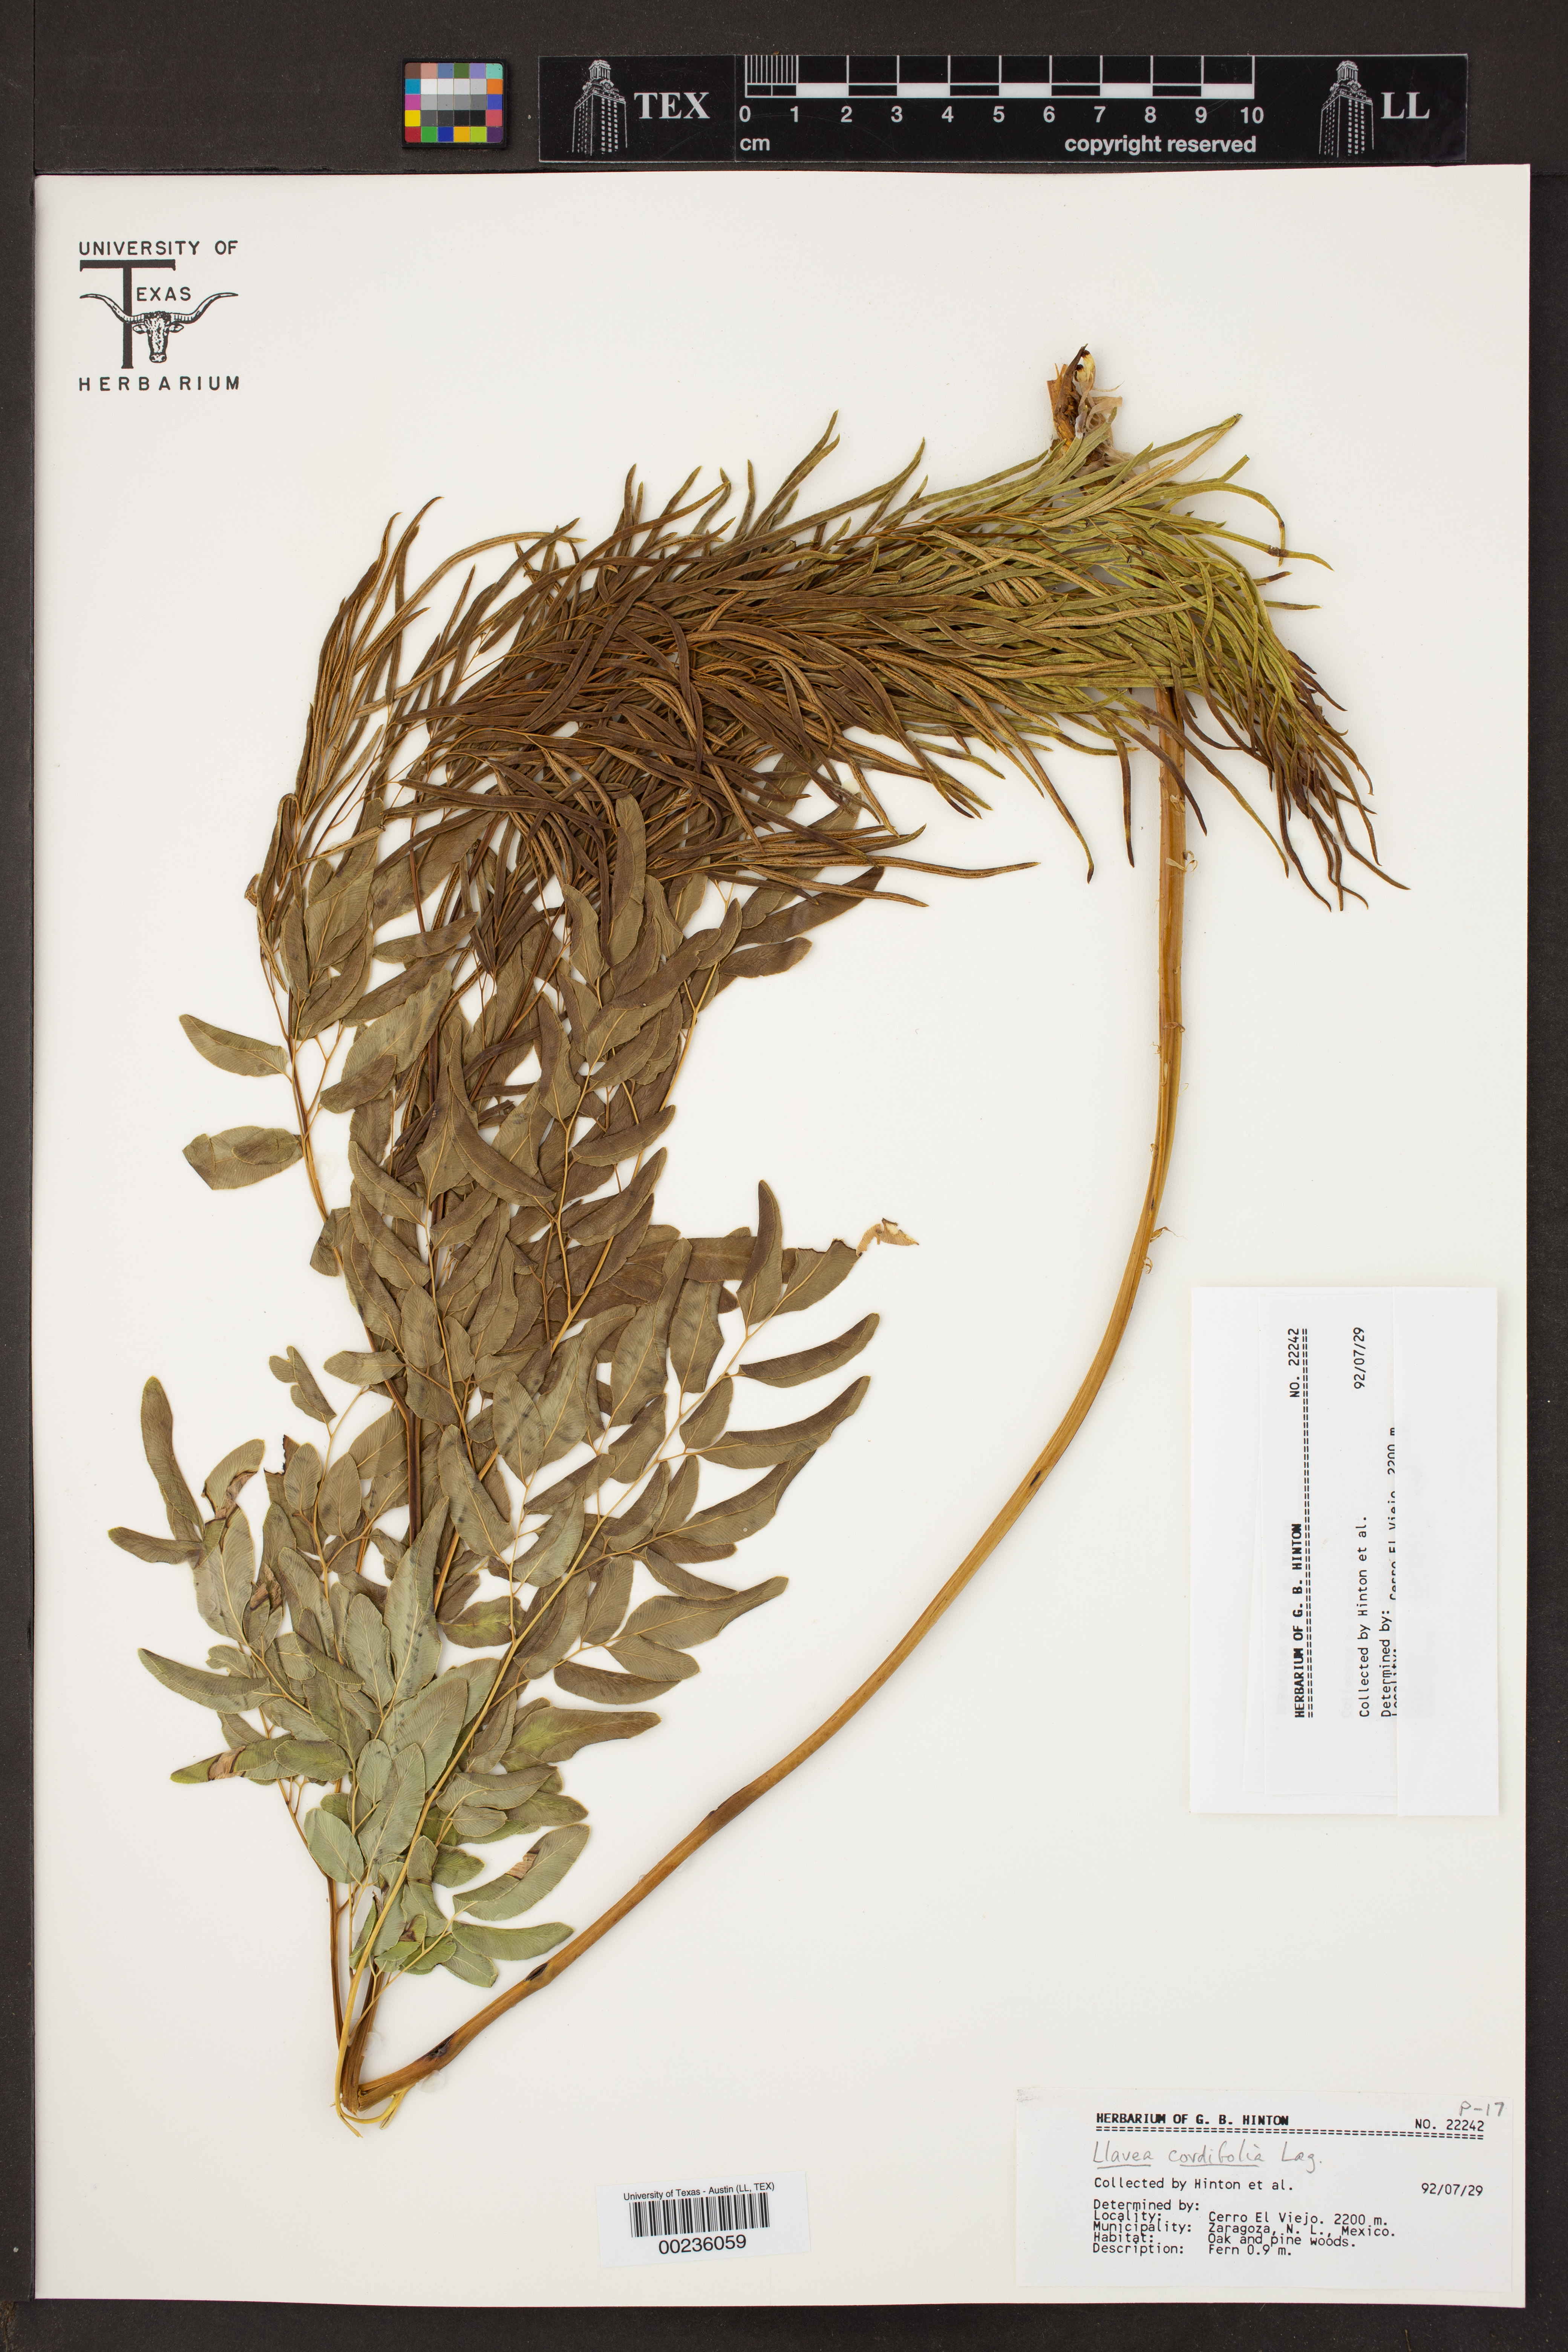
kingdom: Plantae
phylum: Tracheophyta
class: Polypodiopsida
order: Polypodiales
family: Pteridaceae
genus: Llavea
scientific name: Llavea cordifolia
